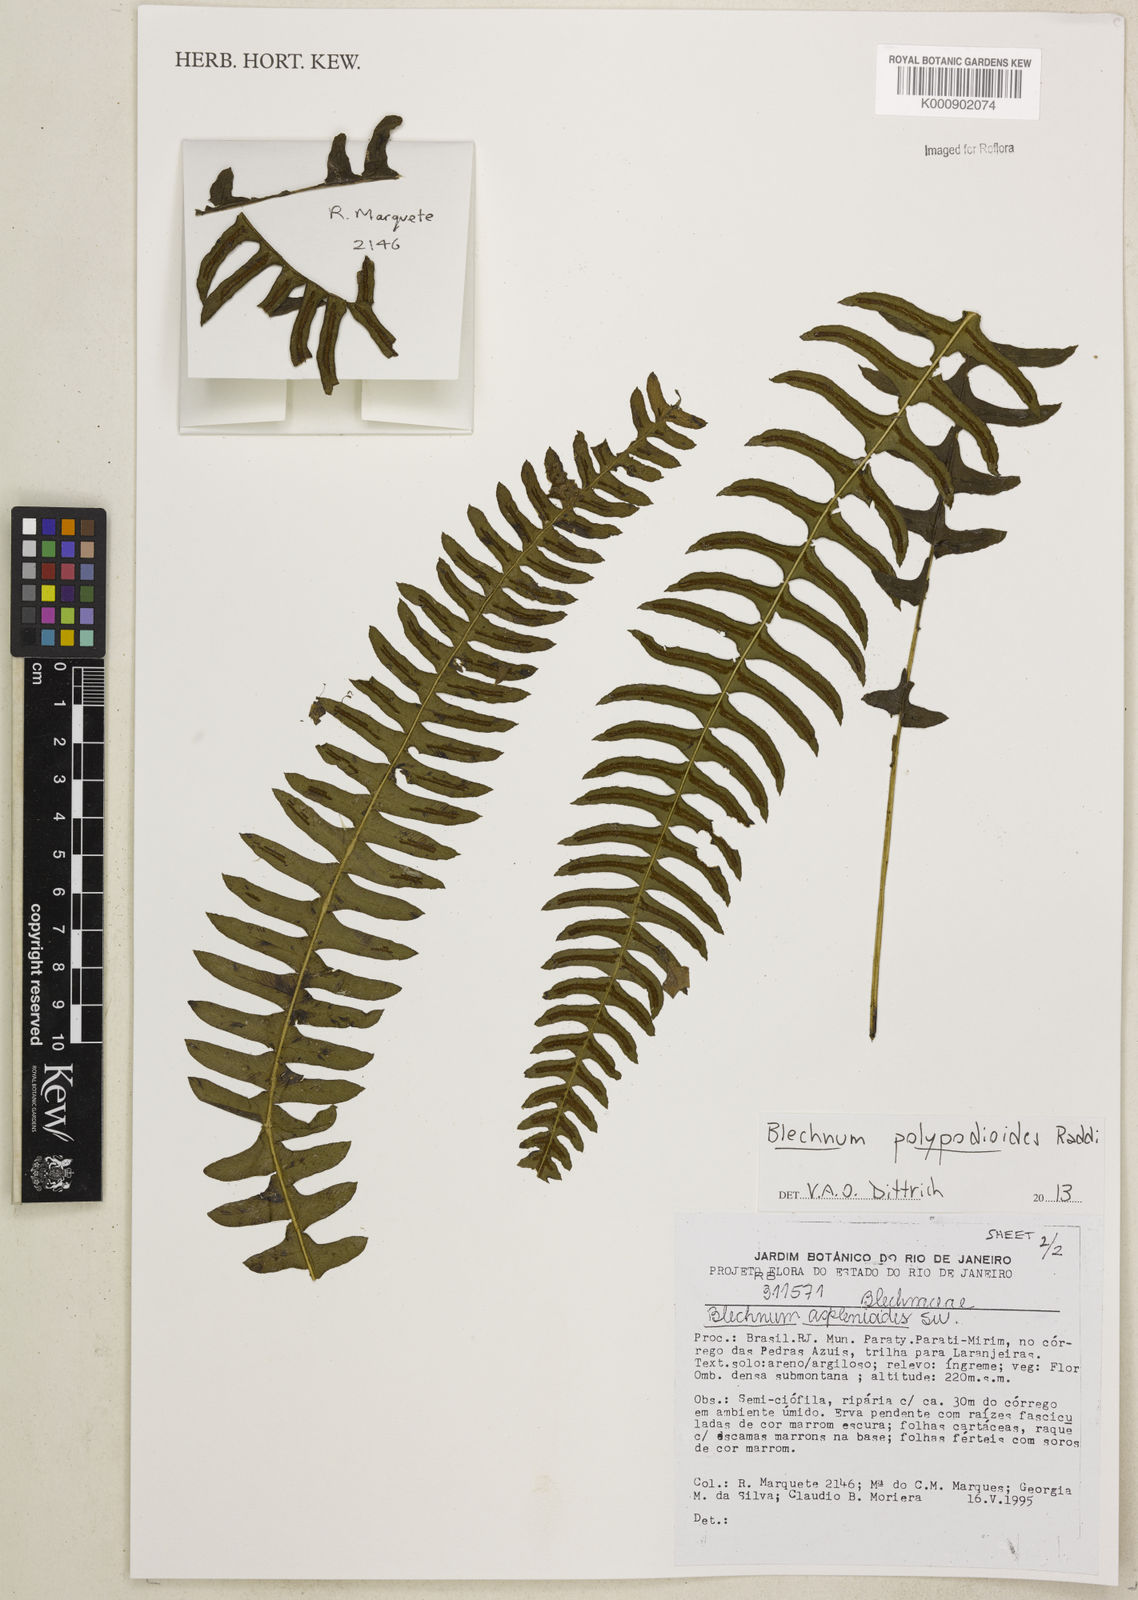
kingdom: Plantae
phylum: Tracheophyta
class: Polypodiopsida
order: Polypodiales
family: Blechnaceae
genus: Blechnum
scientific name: Blechnum polypodioides
